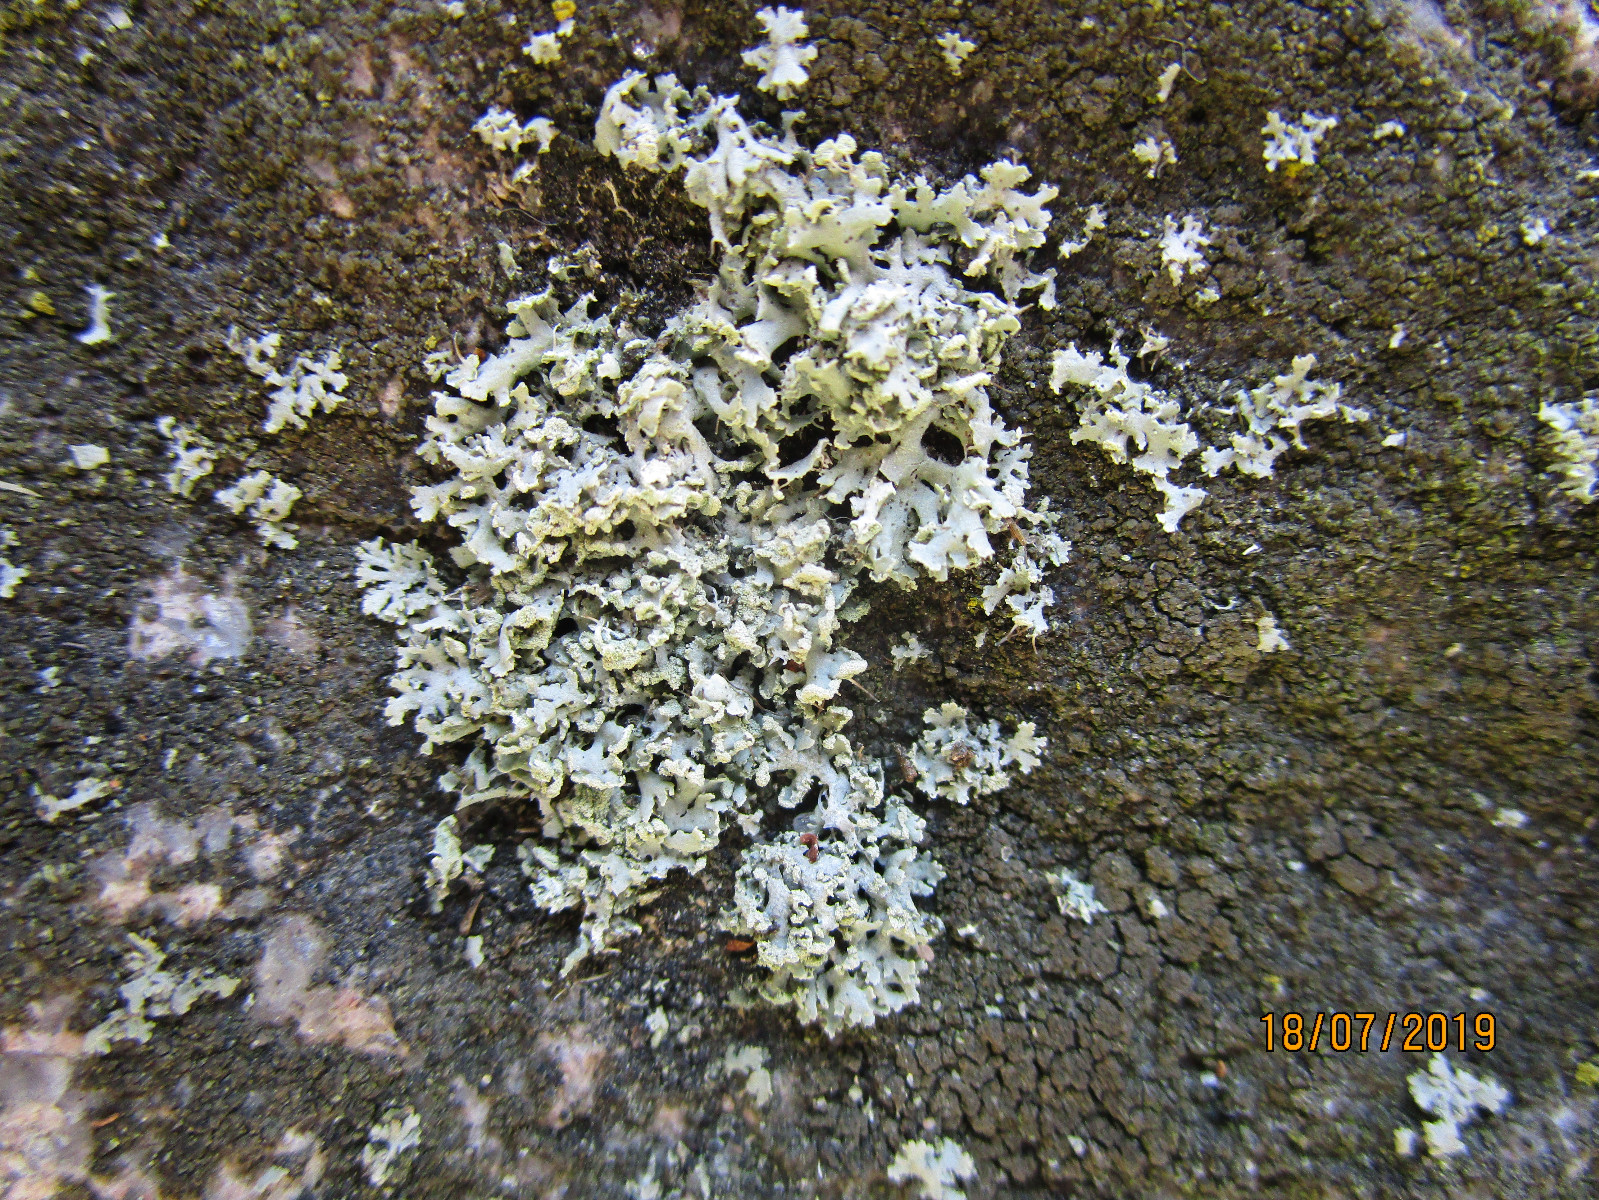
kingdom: Fungi
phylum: Ascomycota
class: Lecanoromycetes
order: Caliciales
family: Physciaceae
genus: Physcia
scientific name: Physcia tenella
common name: spæd rosetlav
